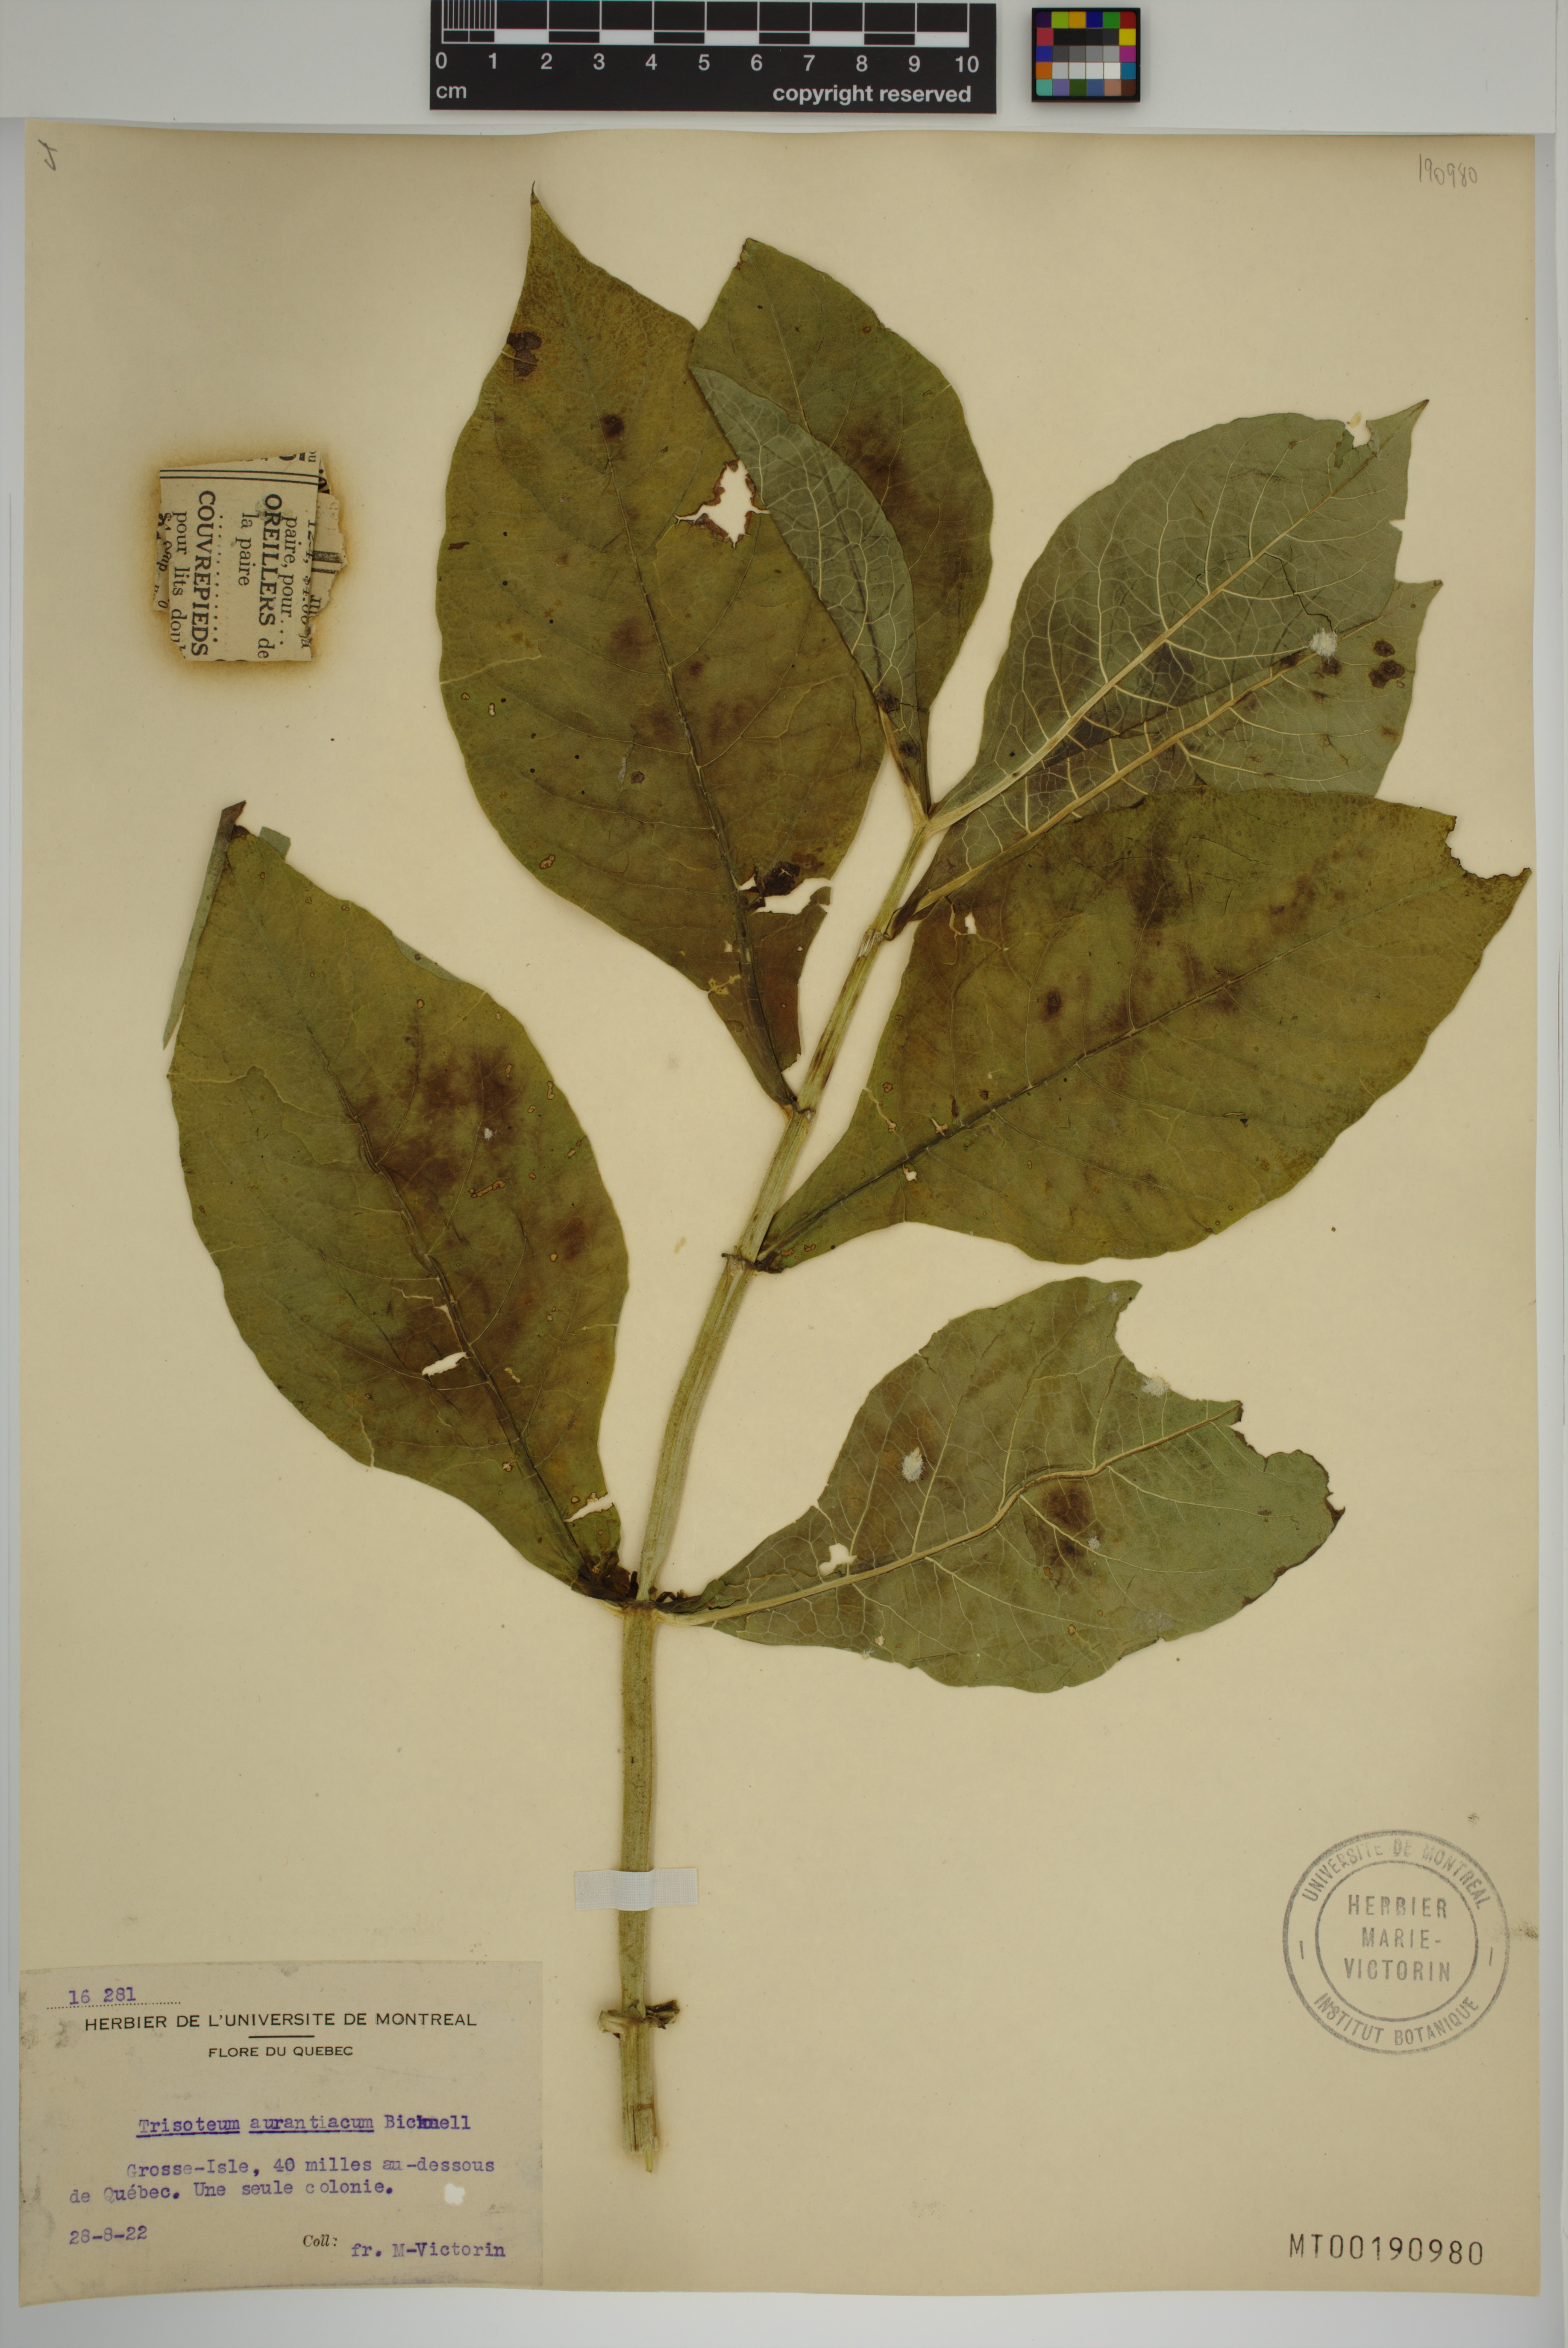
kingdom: Plantae
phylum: Tracheophyta
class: Magnoliopsida
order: Dipsacales
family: Caprifoliaceae
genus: Triosteum
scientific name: Triosteum aurantiacum
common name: Coffee tinker's-weed
